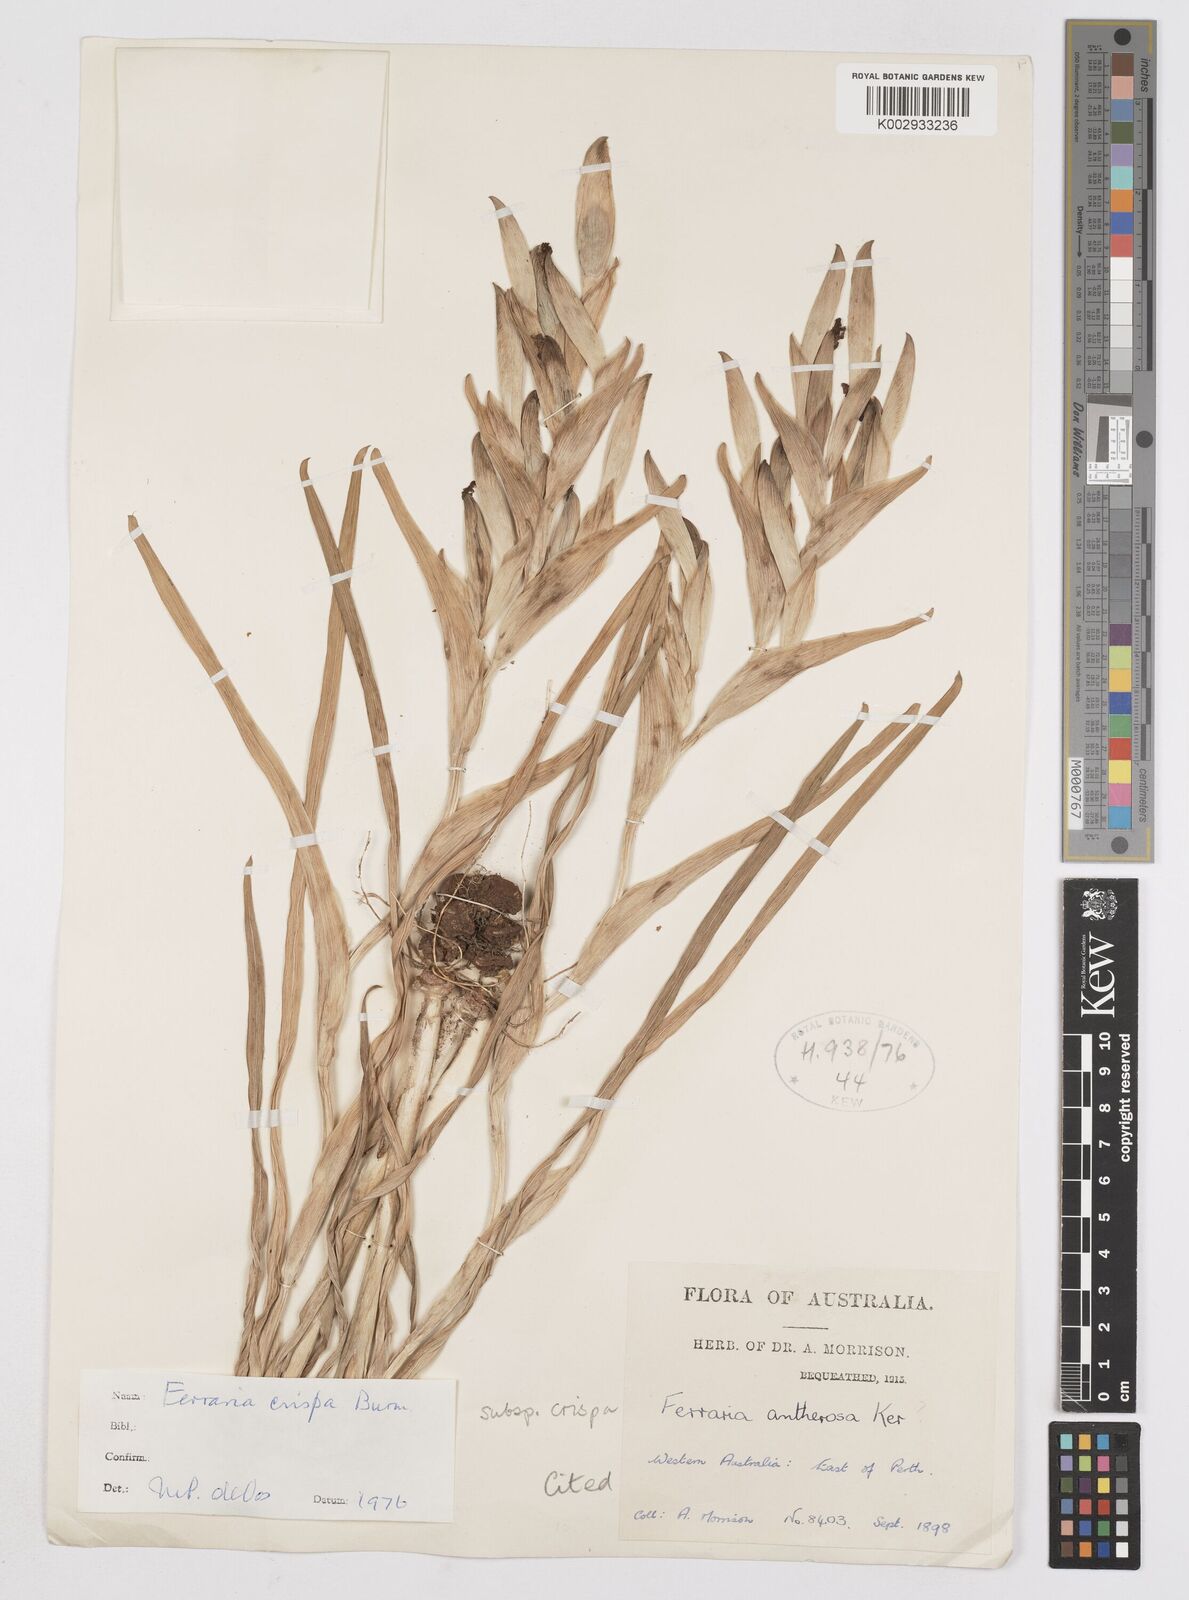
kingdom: Plantae
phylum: Tracheophyta
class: Liliopsida
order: Asparagales
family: Iridaceae
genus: Ferraria
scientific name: Ferraria crispa
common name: Black-flag
